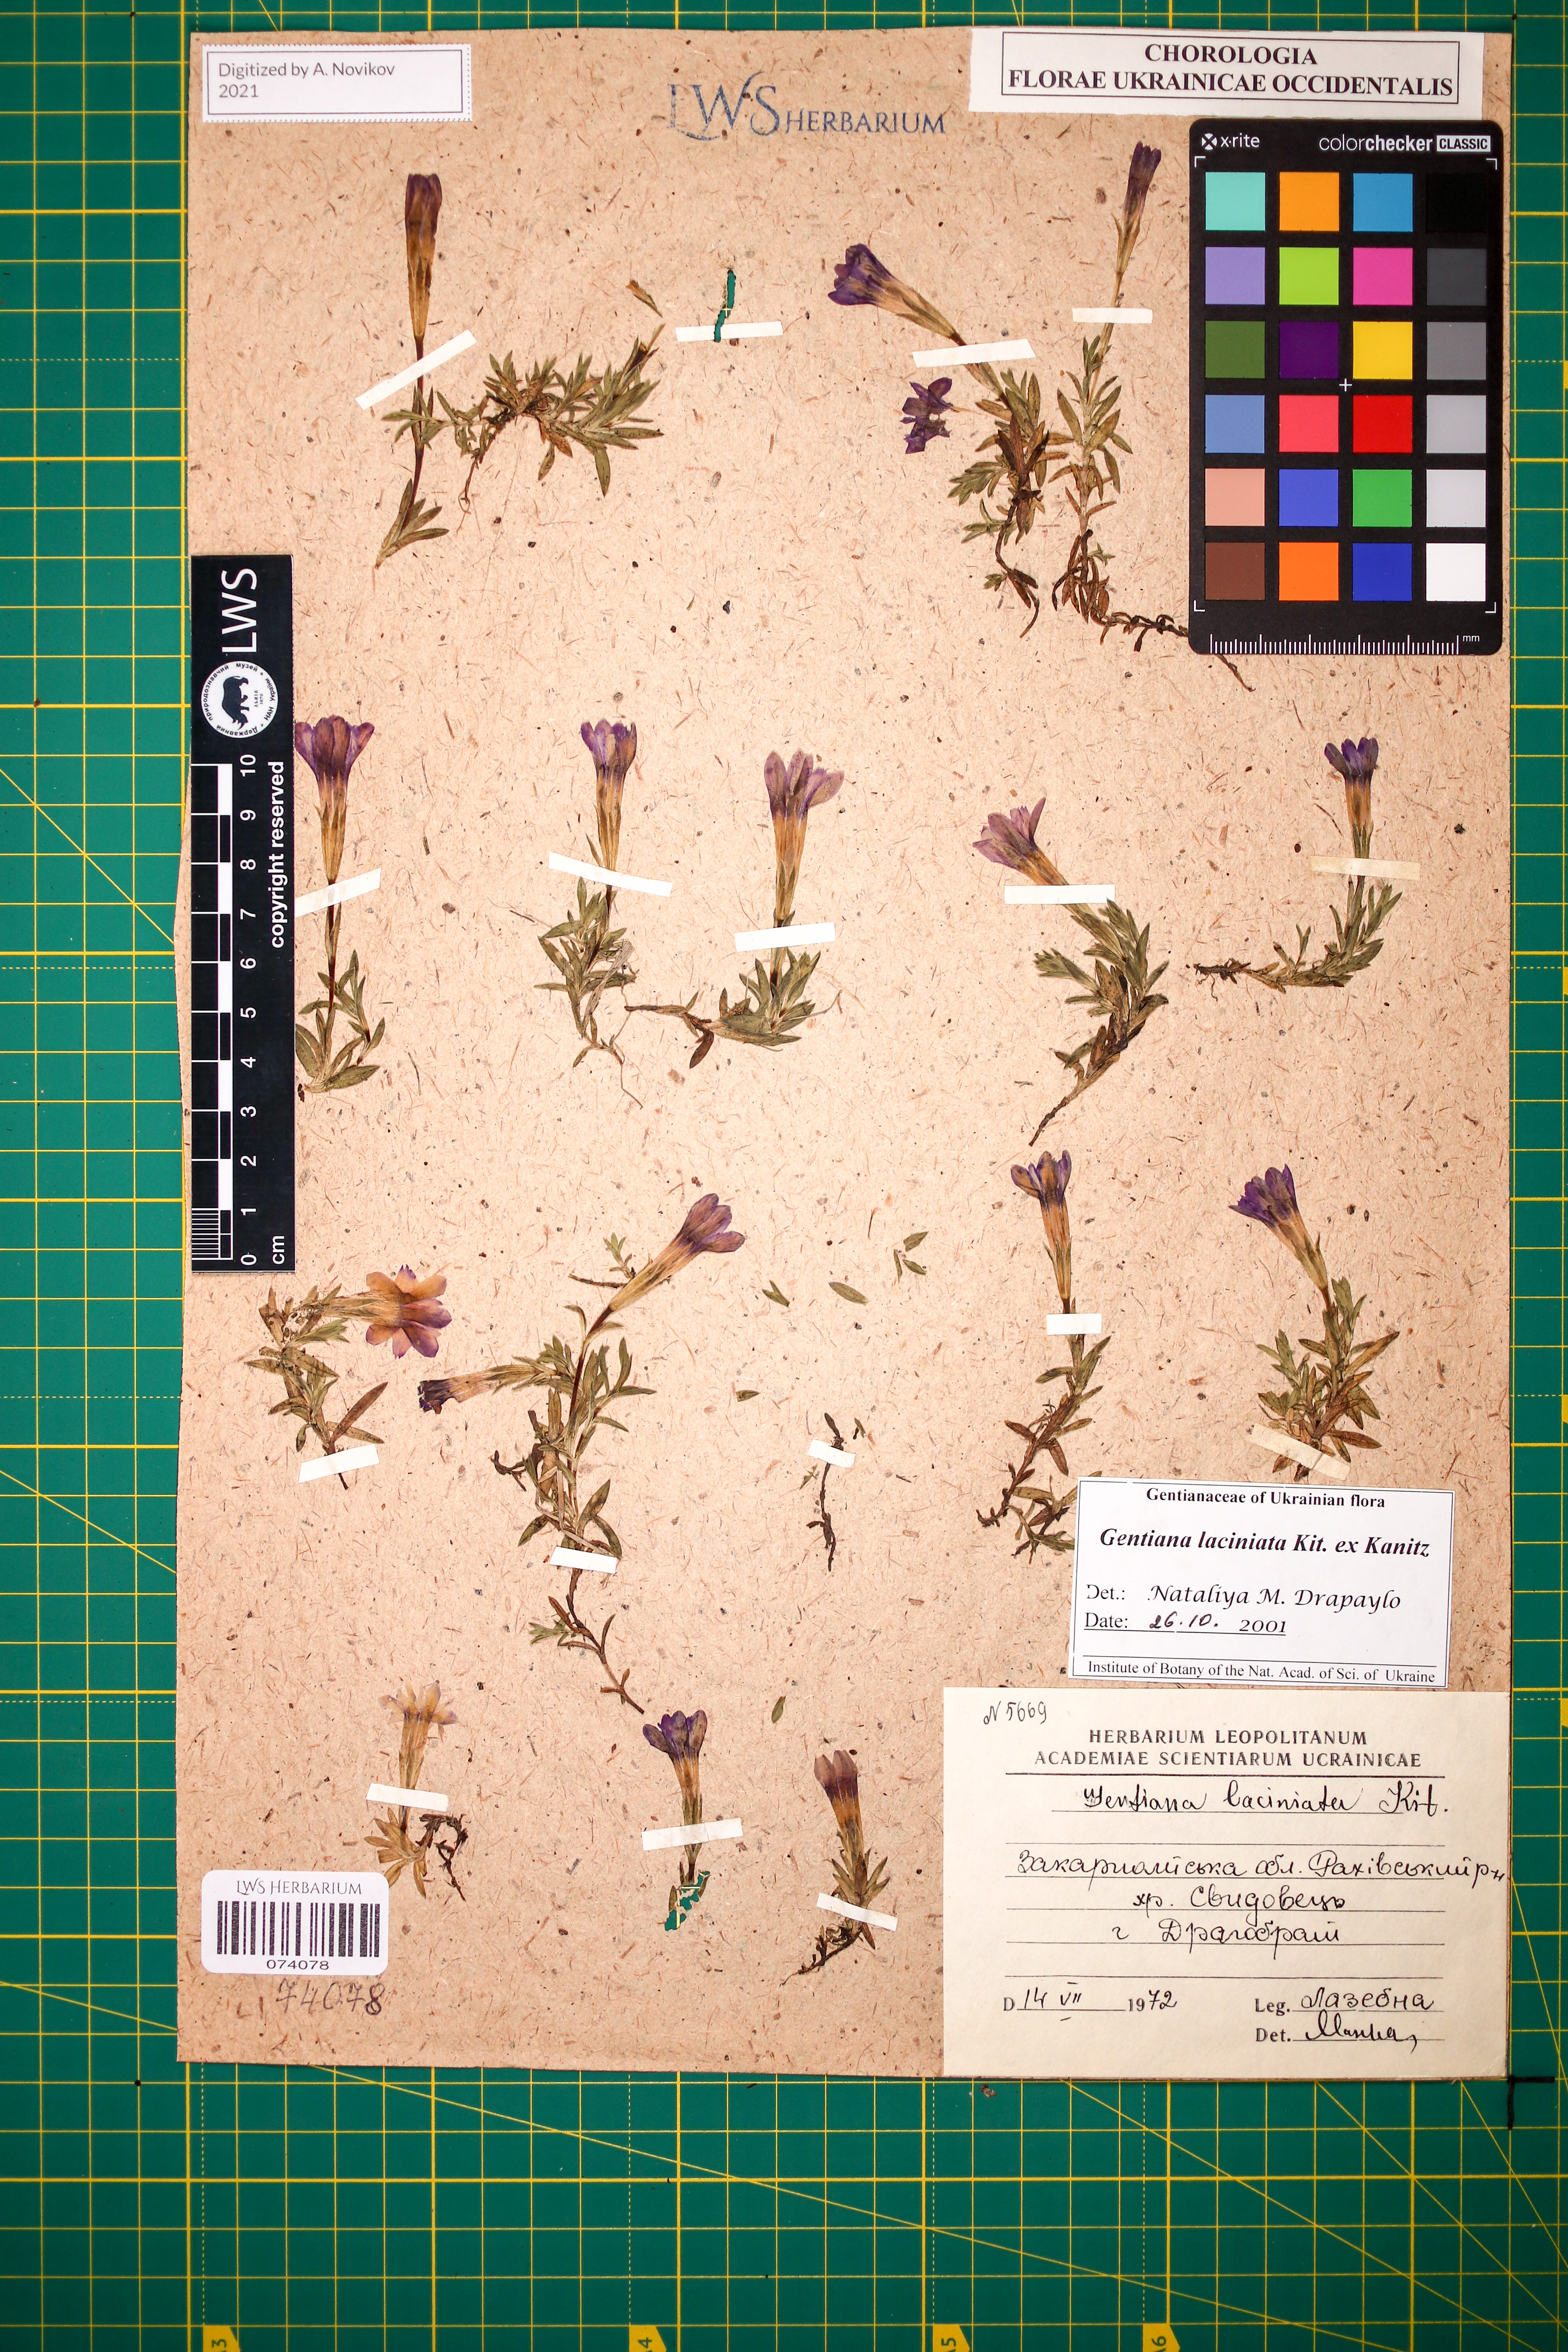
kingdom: Plantae
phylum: Tracheophyta
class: Magnoliopsida
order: Gentianales
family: Gentianaceae
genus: Gentiana
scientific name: Gentiana laciniata
